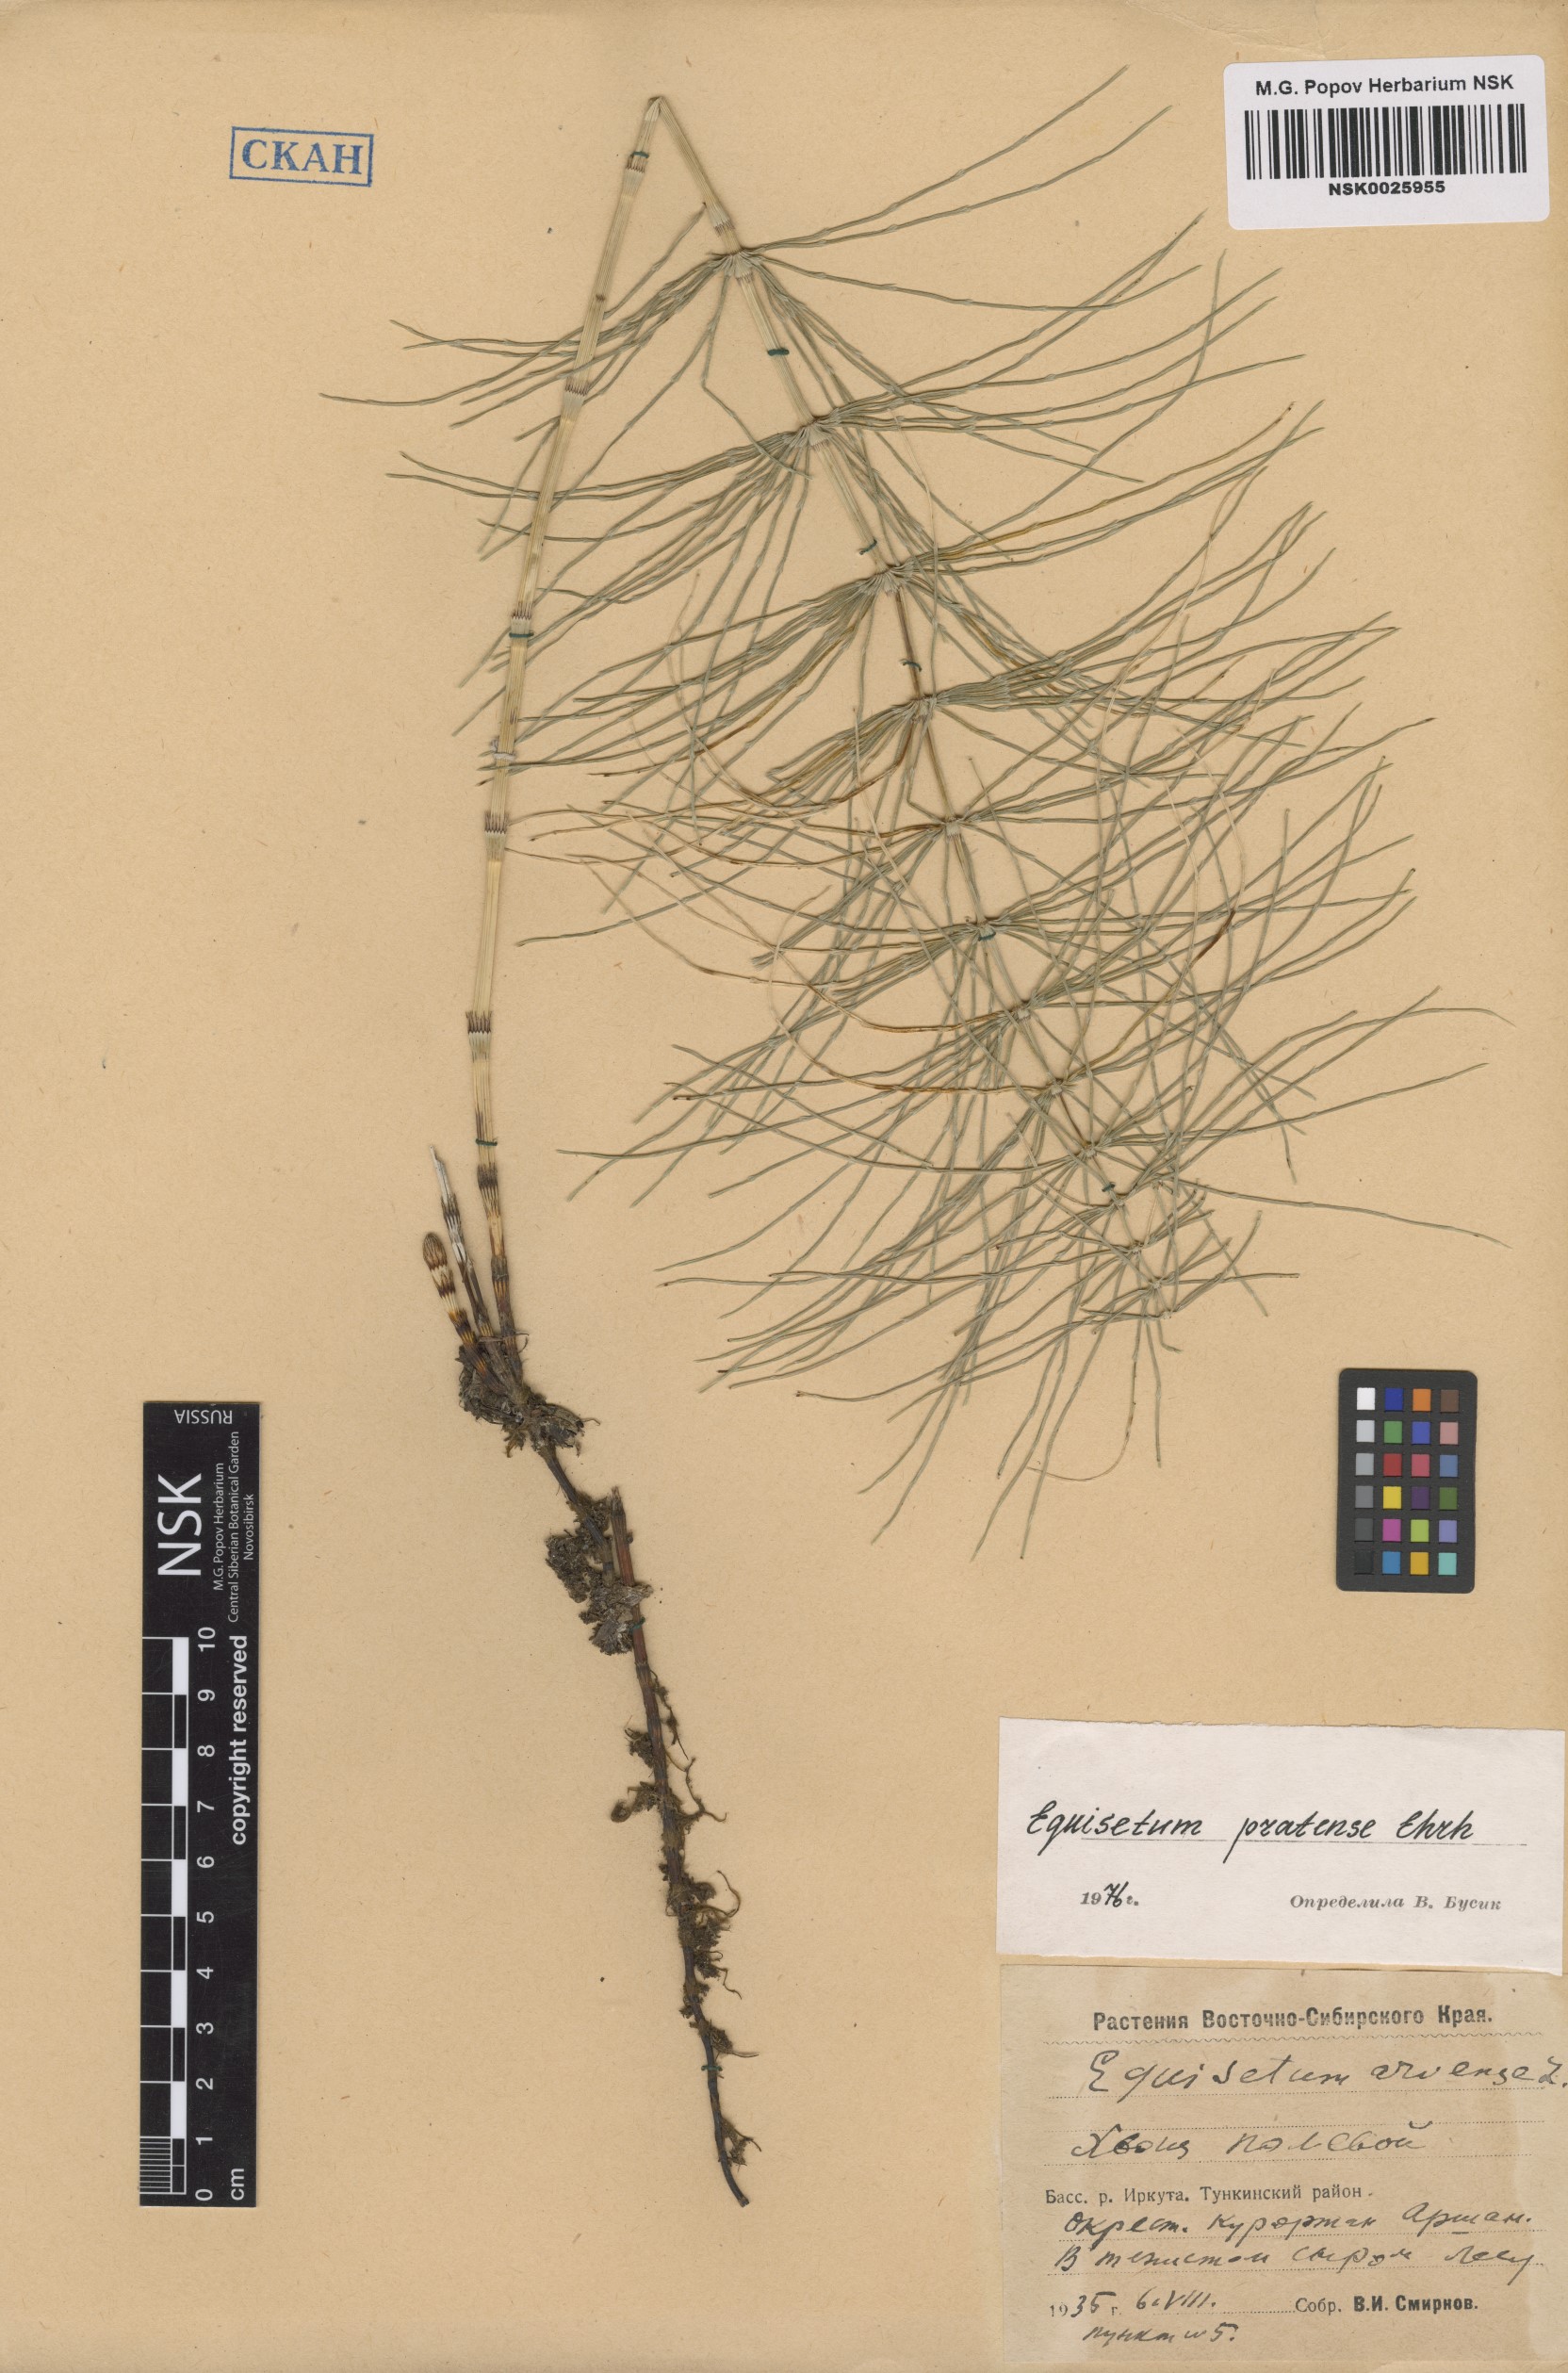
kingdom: Plantae
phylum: Tracheophyta
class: Polypodiopsida
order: Equisetales
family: Equisetaceae
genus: Equisetum
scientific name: Equisetum pratense
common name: Meadow horsetail
